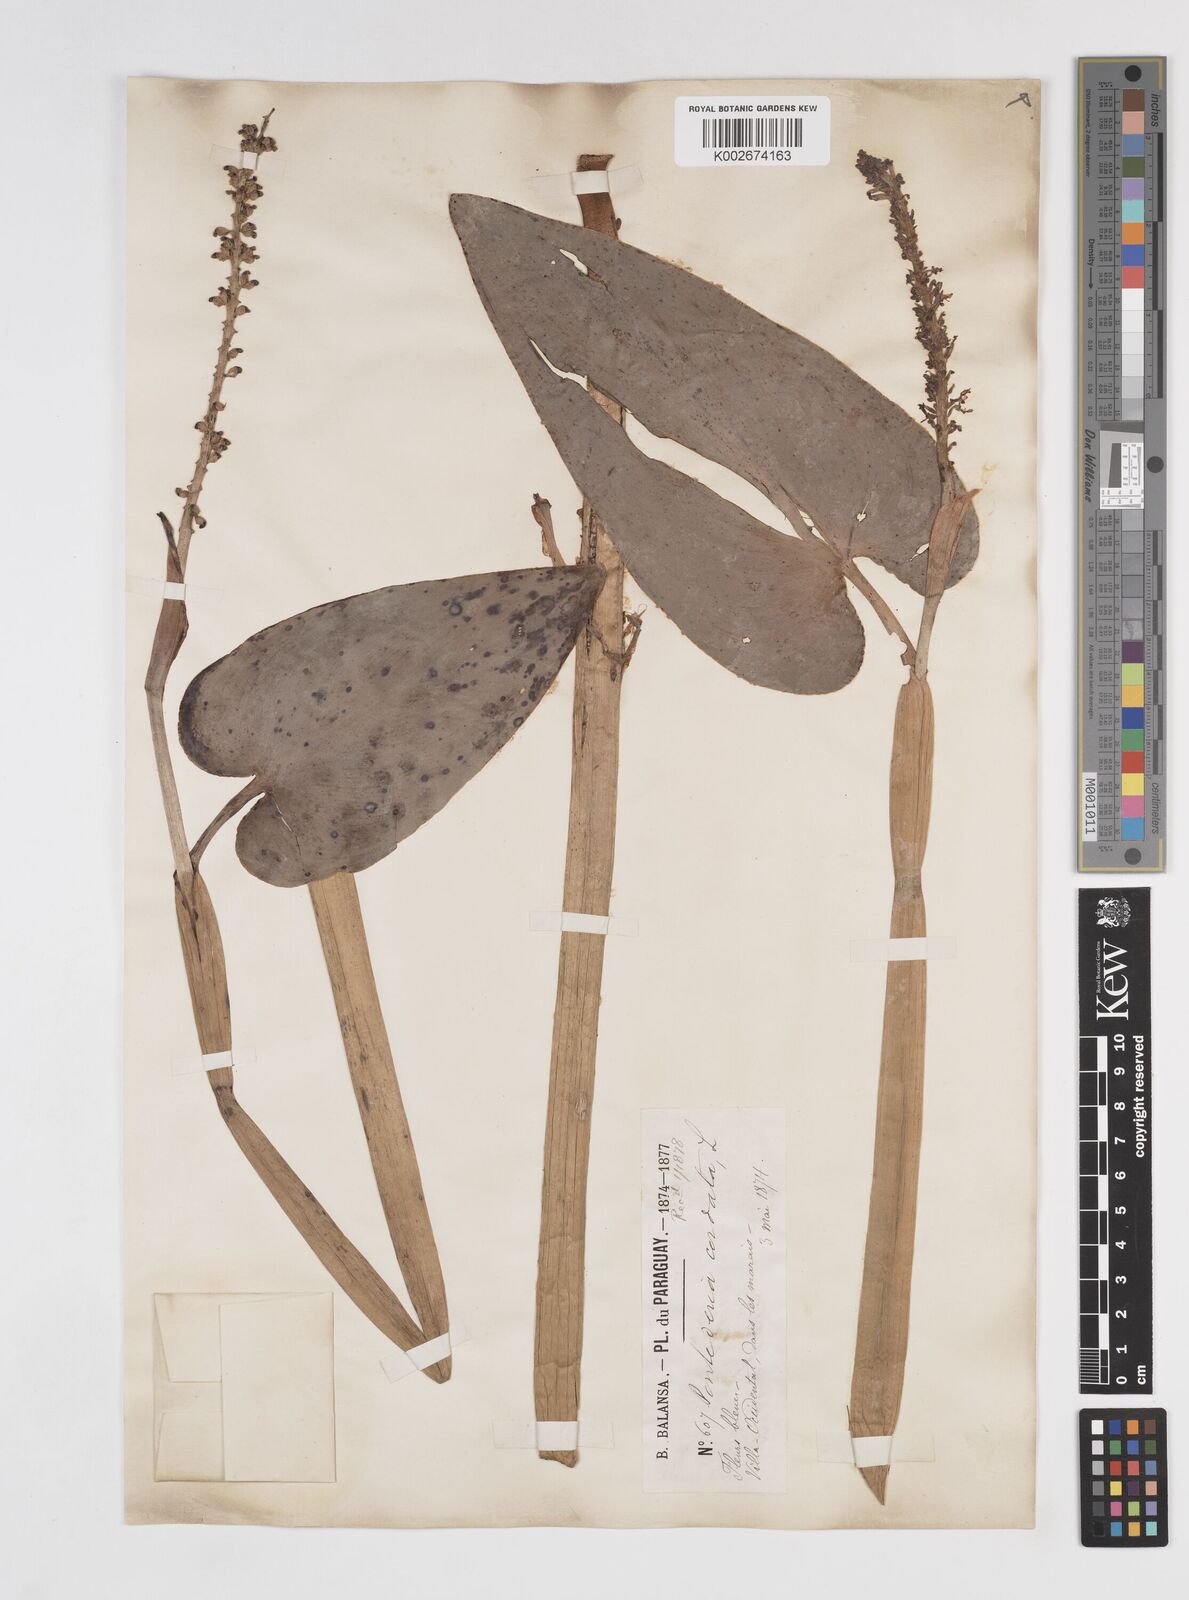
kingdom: Plantae
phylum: Tracheophyta
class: Liliopsida
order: Commelinales
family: Pontederiaceae
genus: Pontederia
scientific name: Pontederia
